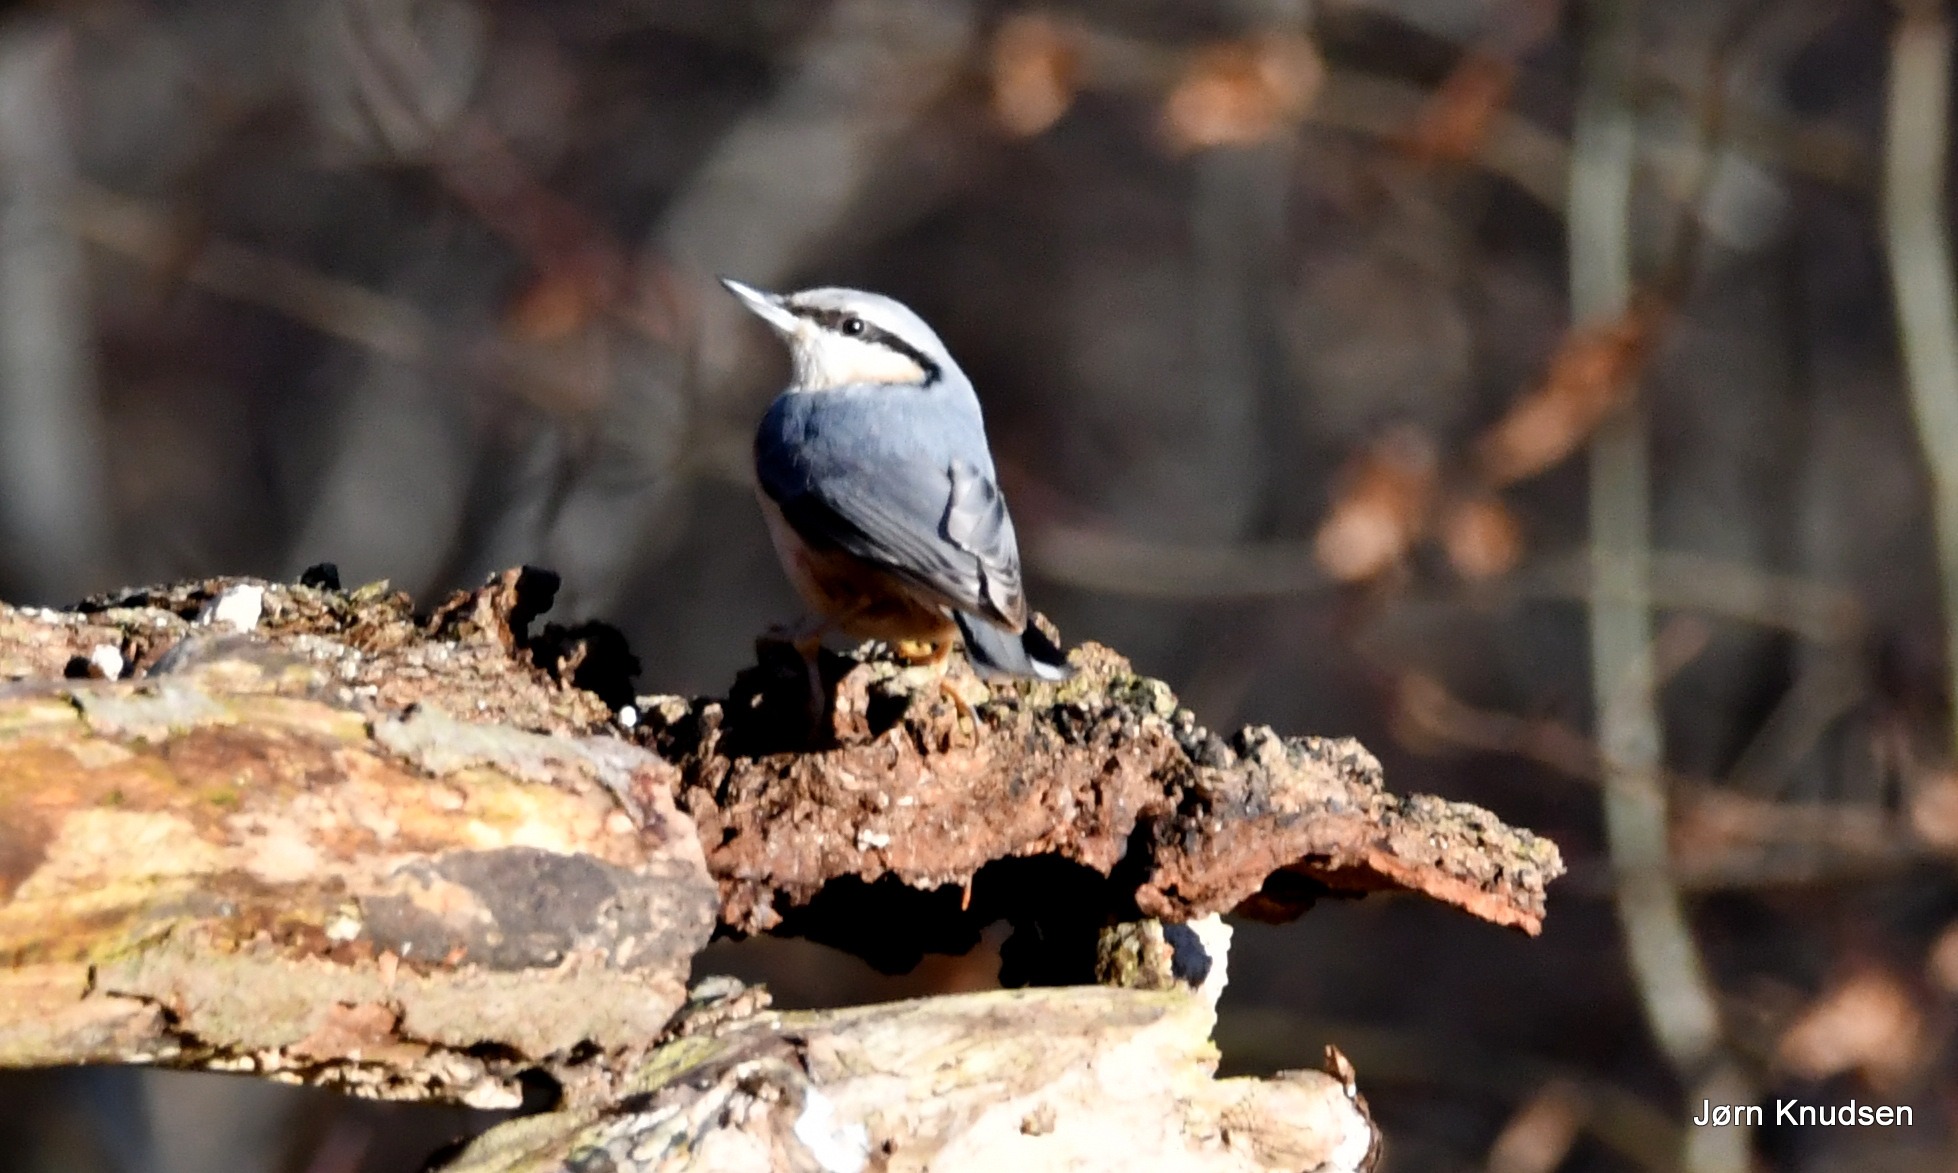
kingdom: Animalia
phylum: Chordata
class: Aves
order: Passeriformes
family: Sittidae
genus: Sitta
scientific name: Sitta europaea
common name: Spætmejse
